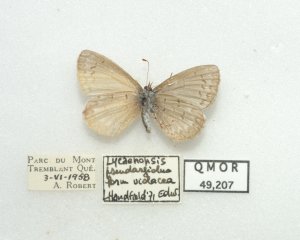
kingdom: Animalia
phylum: Arthropoda
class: Insecta
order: Lepidoptera
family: Lycaenidae
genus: Celastrina
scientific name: Celastrina lucia
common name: Northern Spring Azure
